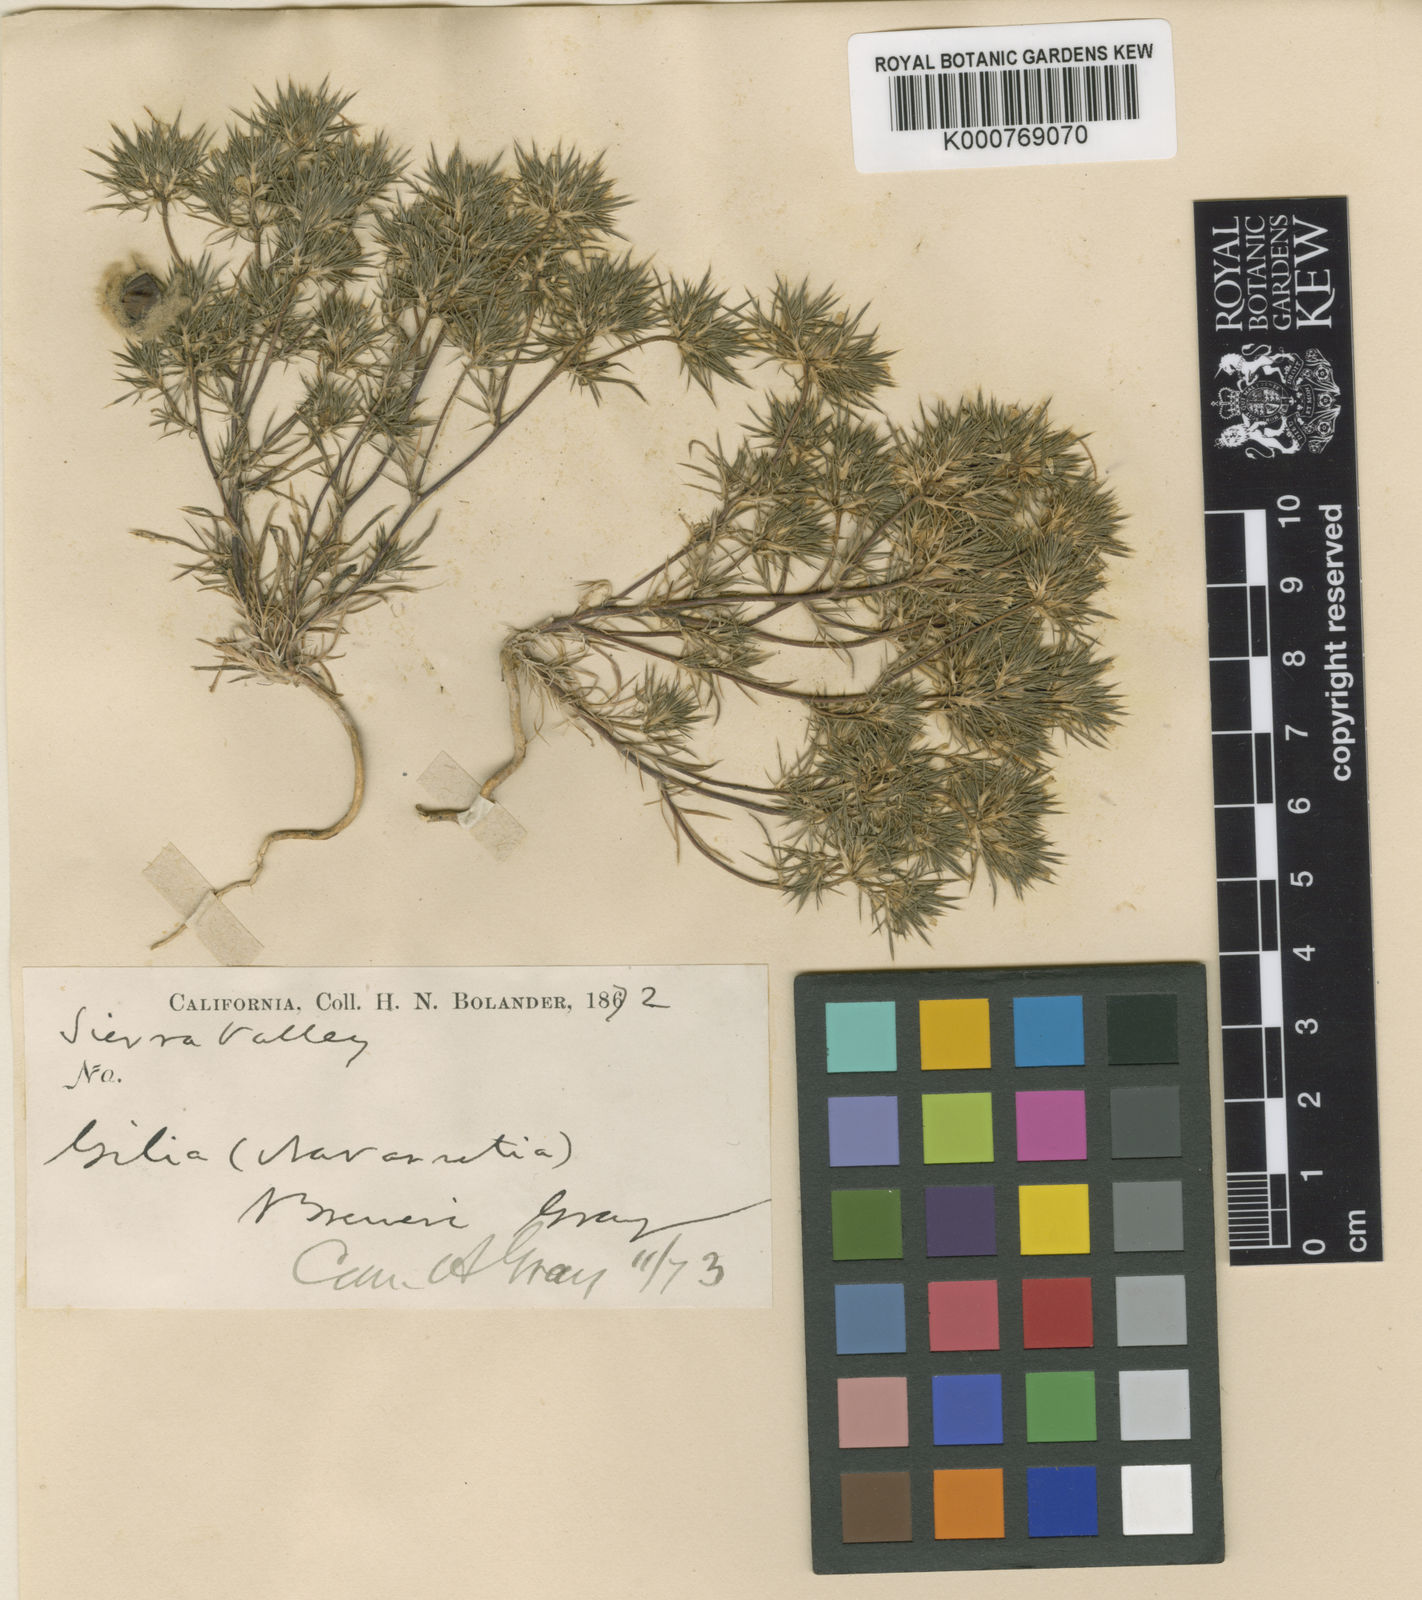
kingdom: Plantae
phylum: Tracheophyta
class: Magnoliopsida
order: Ericales
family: Polemoniaceae
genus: Navarretia
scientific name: Navarretia breweri
